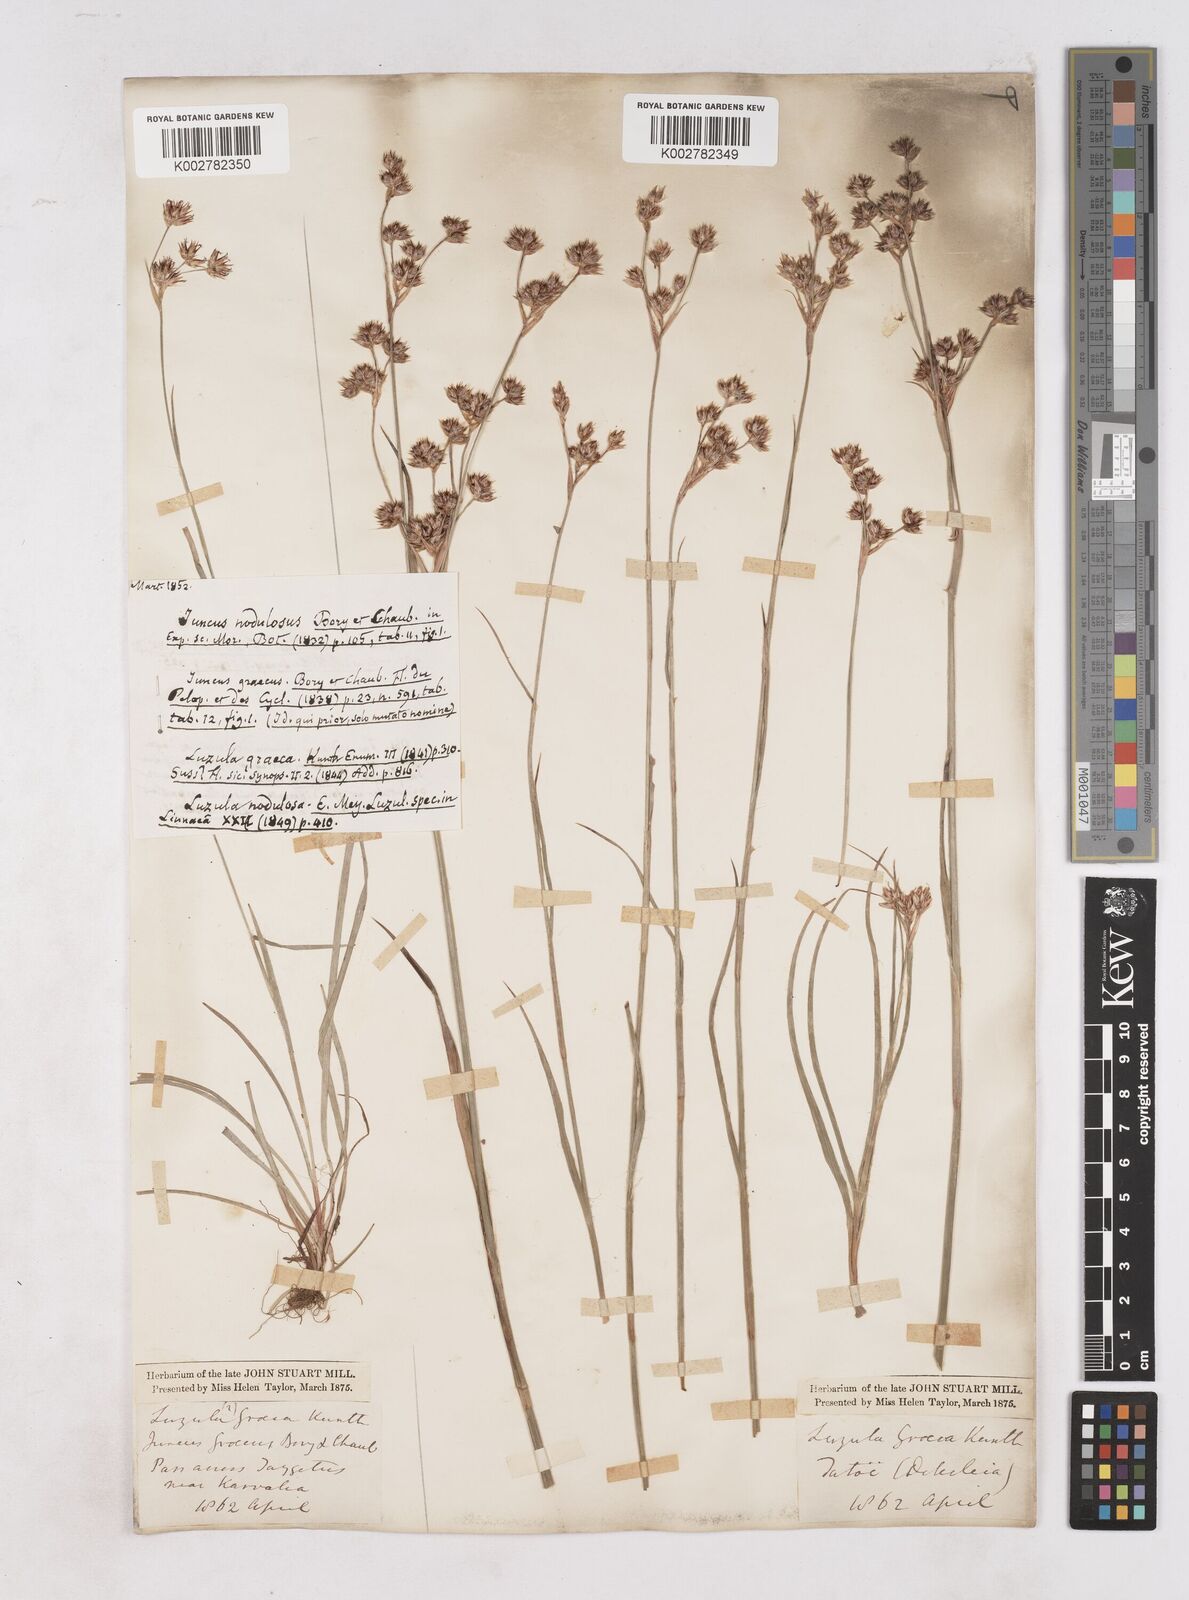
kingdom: Plantae
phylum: Tracheophyta
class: Liliopsida
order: Poales
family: Juncaceae
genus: Luzula
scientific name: Luzula nodulosa
